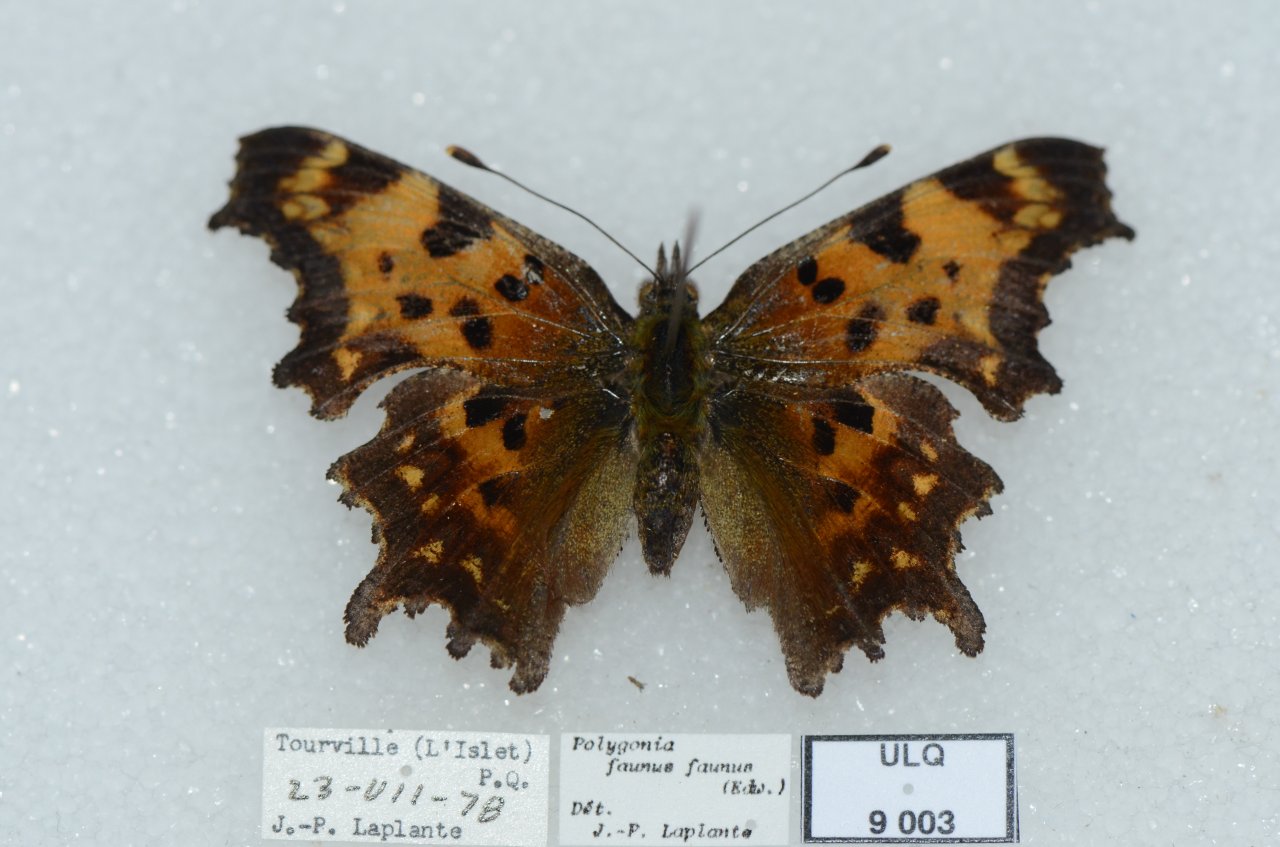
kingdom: Animalia
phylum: Arthropoda
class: Insecta
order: Lepidoptera
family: Nymphalidae
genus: Polygonia
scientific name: Polygonia faunus
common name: Green Comma
